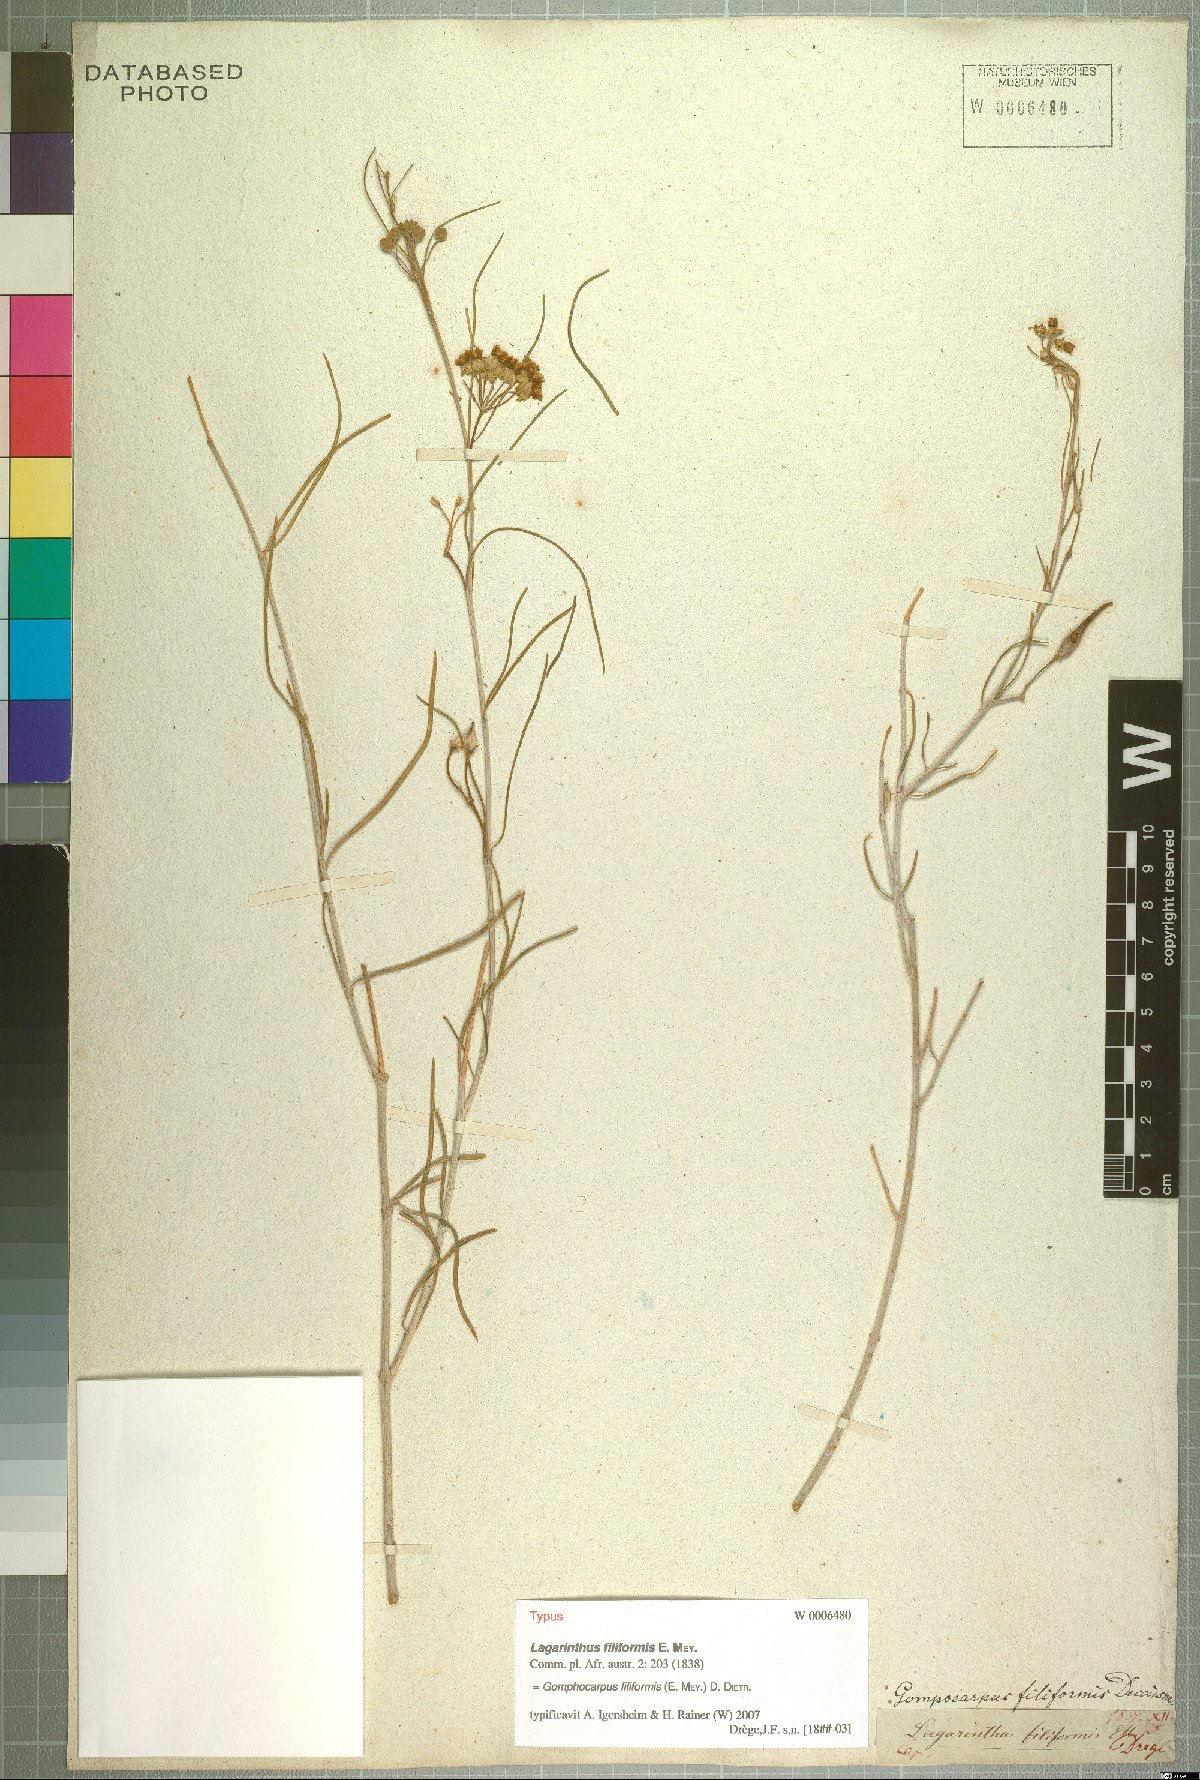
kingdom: Plantae
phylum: Tracheophyta
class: Magnoliopsida
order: Gentianales
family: Apocynaceae
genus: Gomphocarpus
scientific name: Gomphocarpus filiformis
